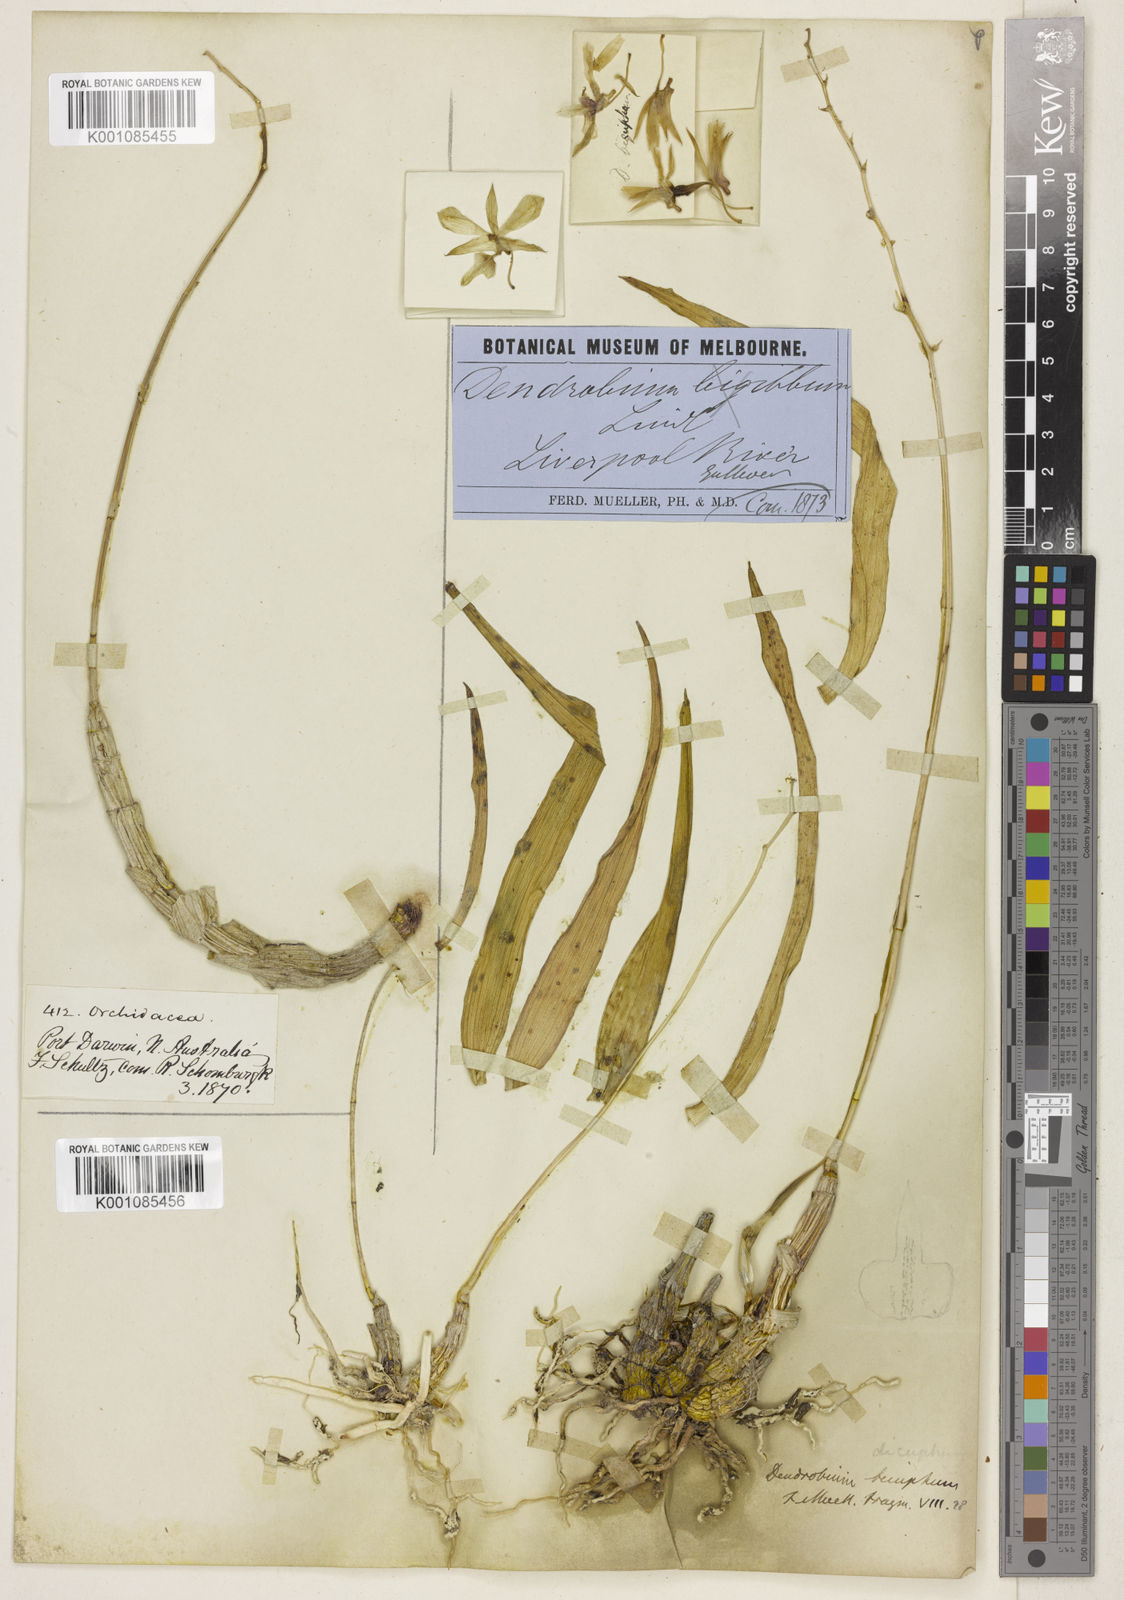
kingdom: Plantae
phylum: Tracheophyta
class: Liliopsida
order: Asparagales
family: Orchidaceae
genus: Dendrobium
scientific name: Dendrobium affine
